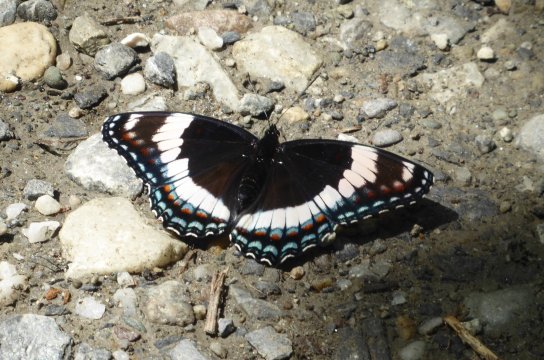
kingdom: Animalia
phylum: Arthropoda
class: Insecta
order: Lepidoptera
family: Nymphalidae
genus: Limenitis
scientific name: Limenitis arthemis
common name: Red-spotted Admiral
